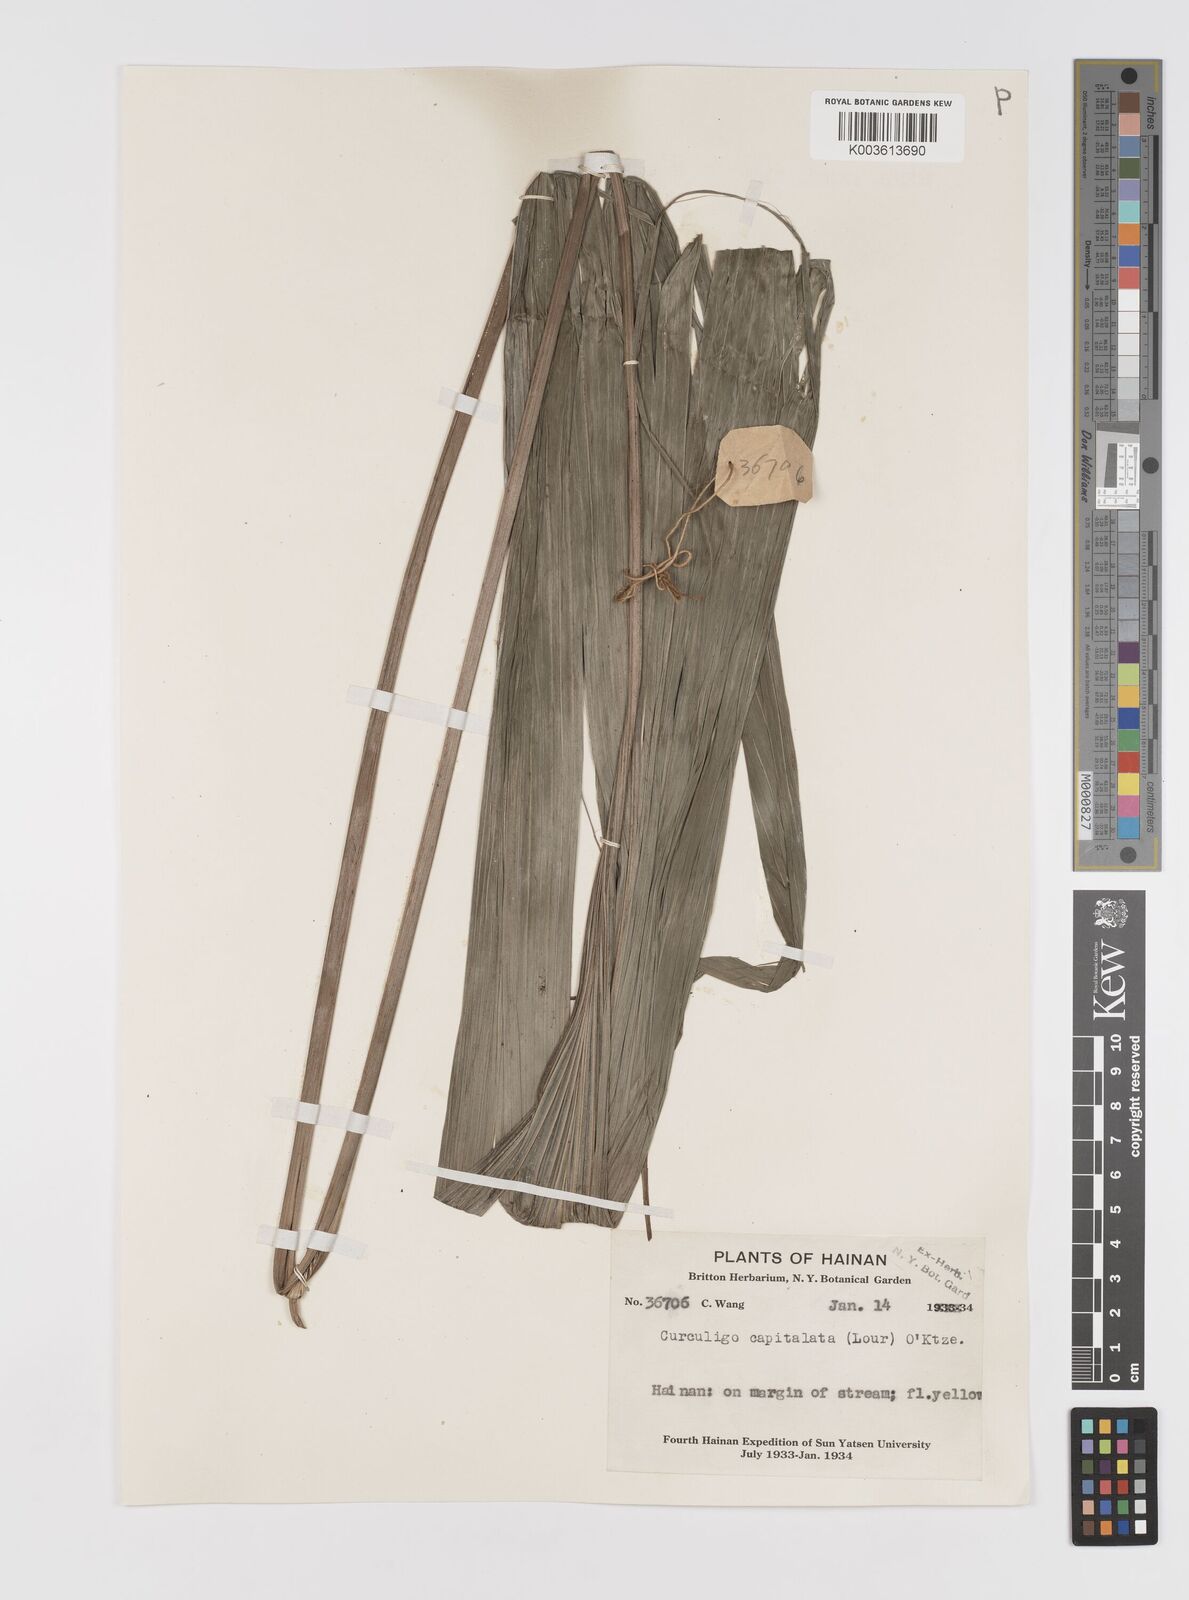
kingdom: Plantae
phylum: Tracheophyta
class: Liliopsida
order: Asparagales
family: Hypoxidaceae
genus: Curculigo
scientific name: Curculigo capitulata
